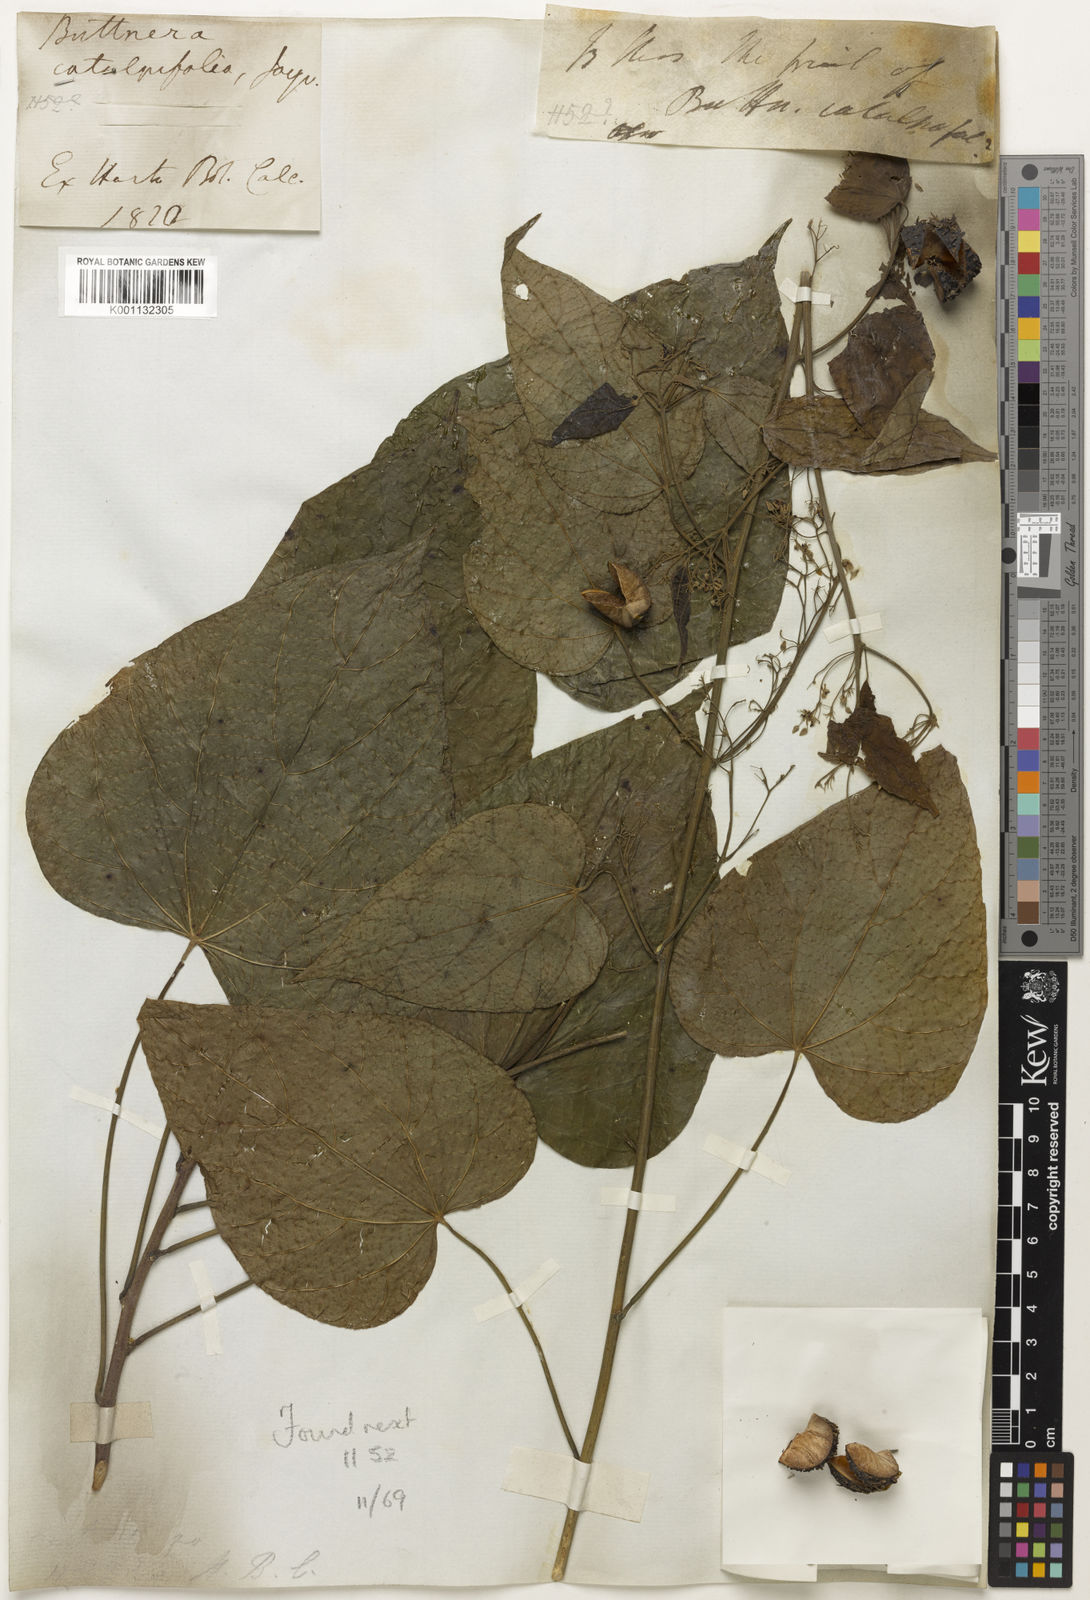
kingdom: Plantae
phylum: Tracheophyta
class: Magnoliopsida
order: Malvales
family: Malvaceae
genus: Byttneria
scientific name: Byttneria
